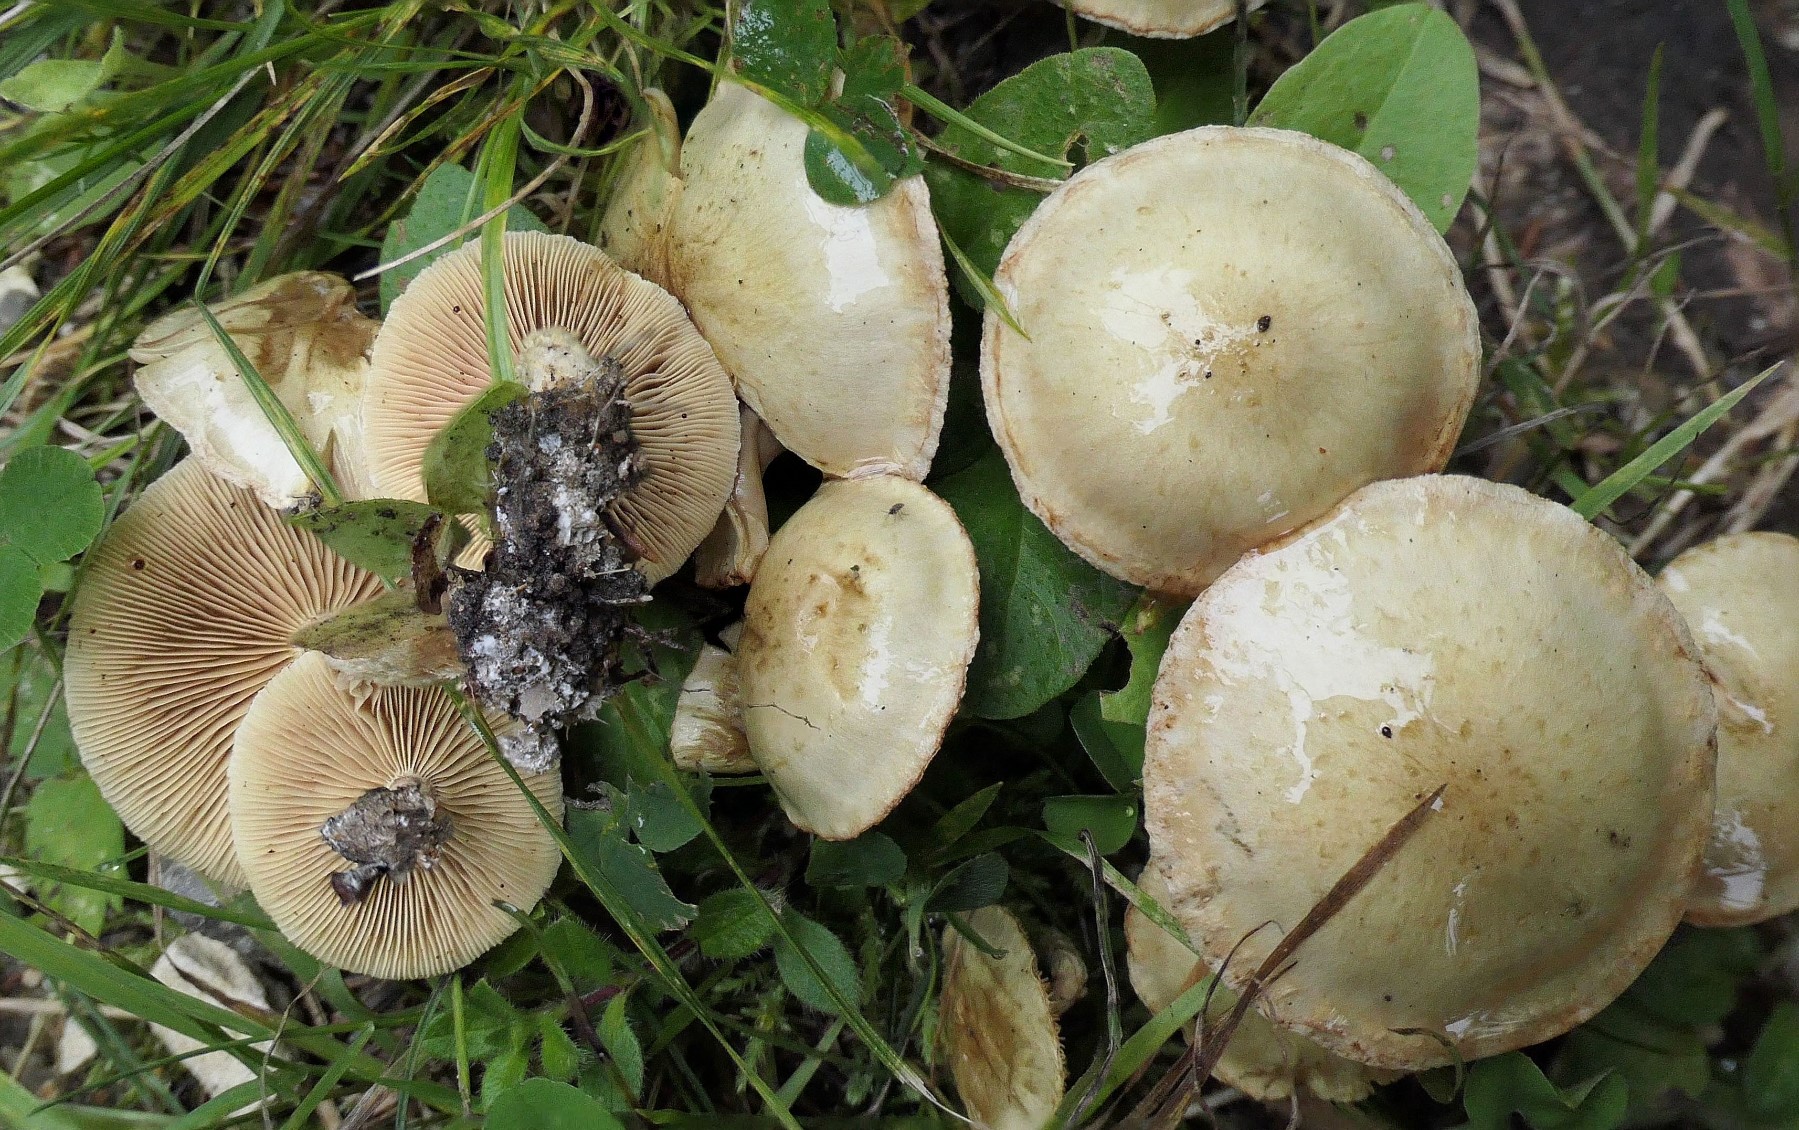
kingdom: Fungi
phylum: Basidiomycota
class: Agaricomycetes
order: Agaricales
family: Strophariaceae
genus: Pholiota
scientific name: Pholiota gummosa
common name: grøngul skælhat
